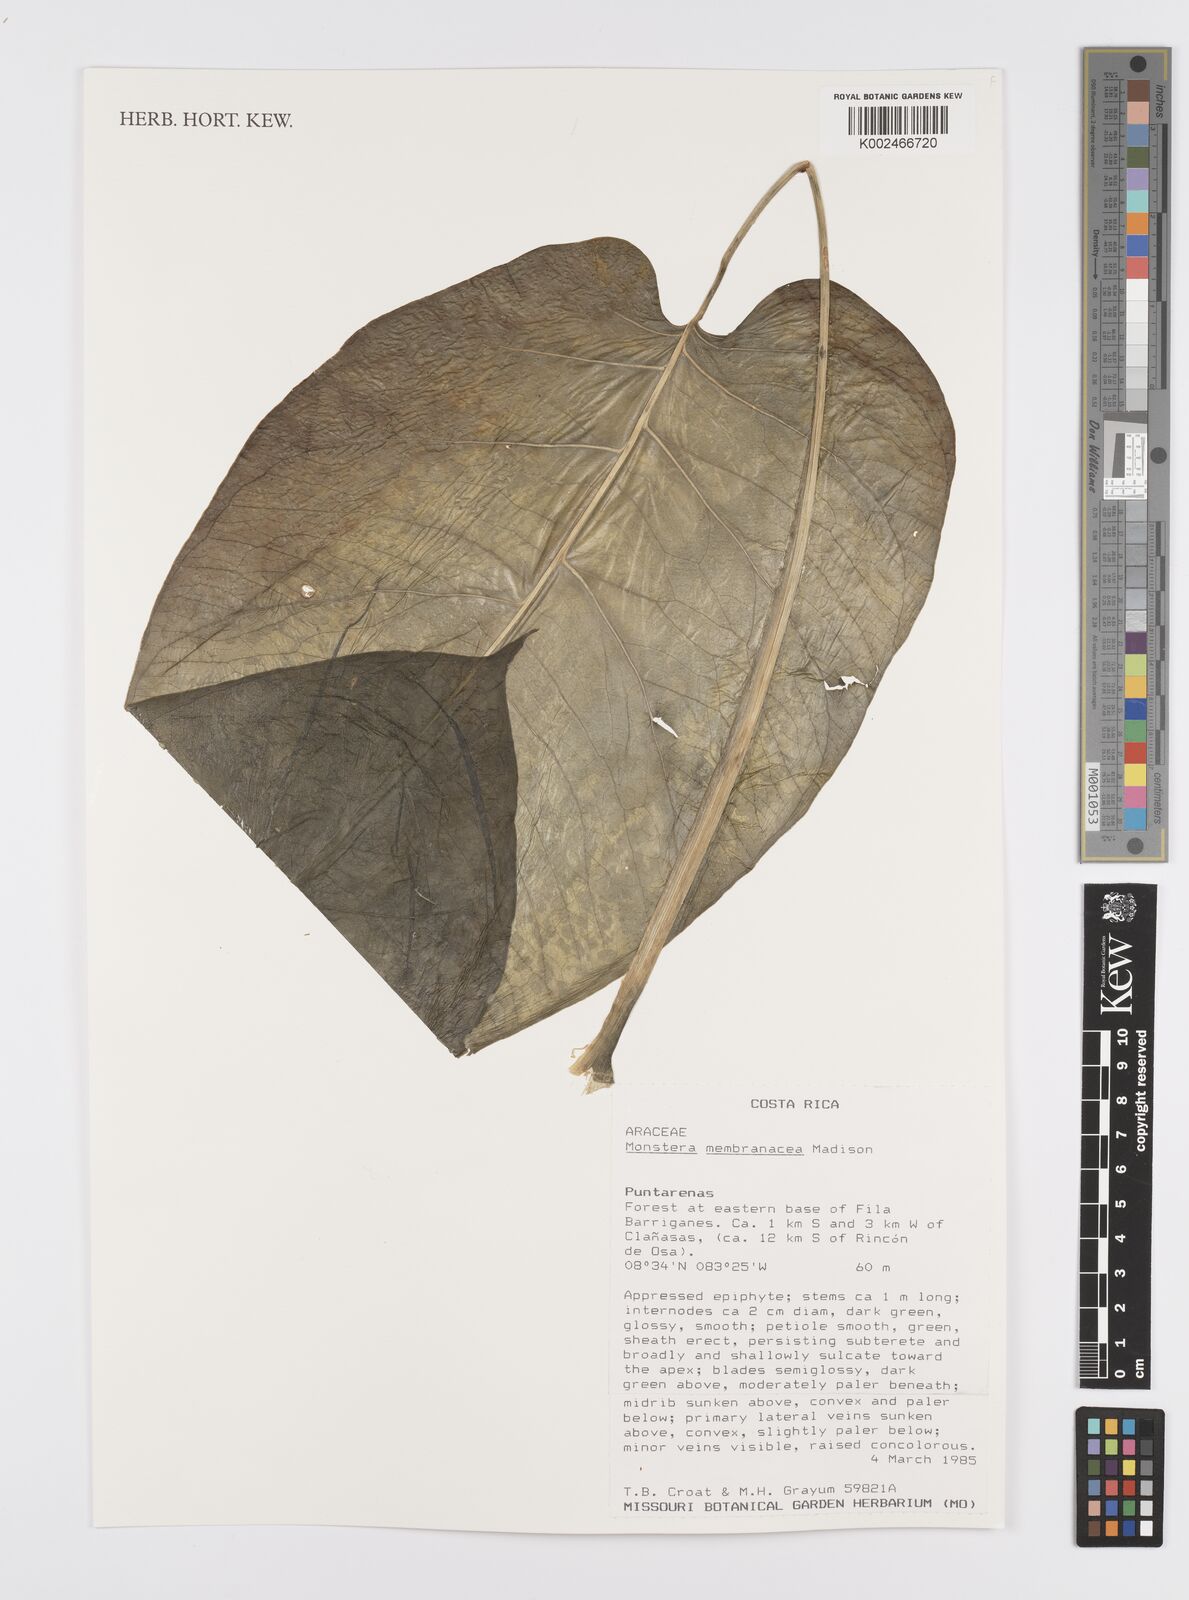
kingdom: Plantae
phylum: Tracheophyta
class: Liliopsida
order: Alismatales
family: Araceae
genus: Monstera
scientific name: Monstera membranacea
